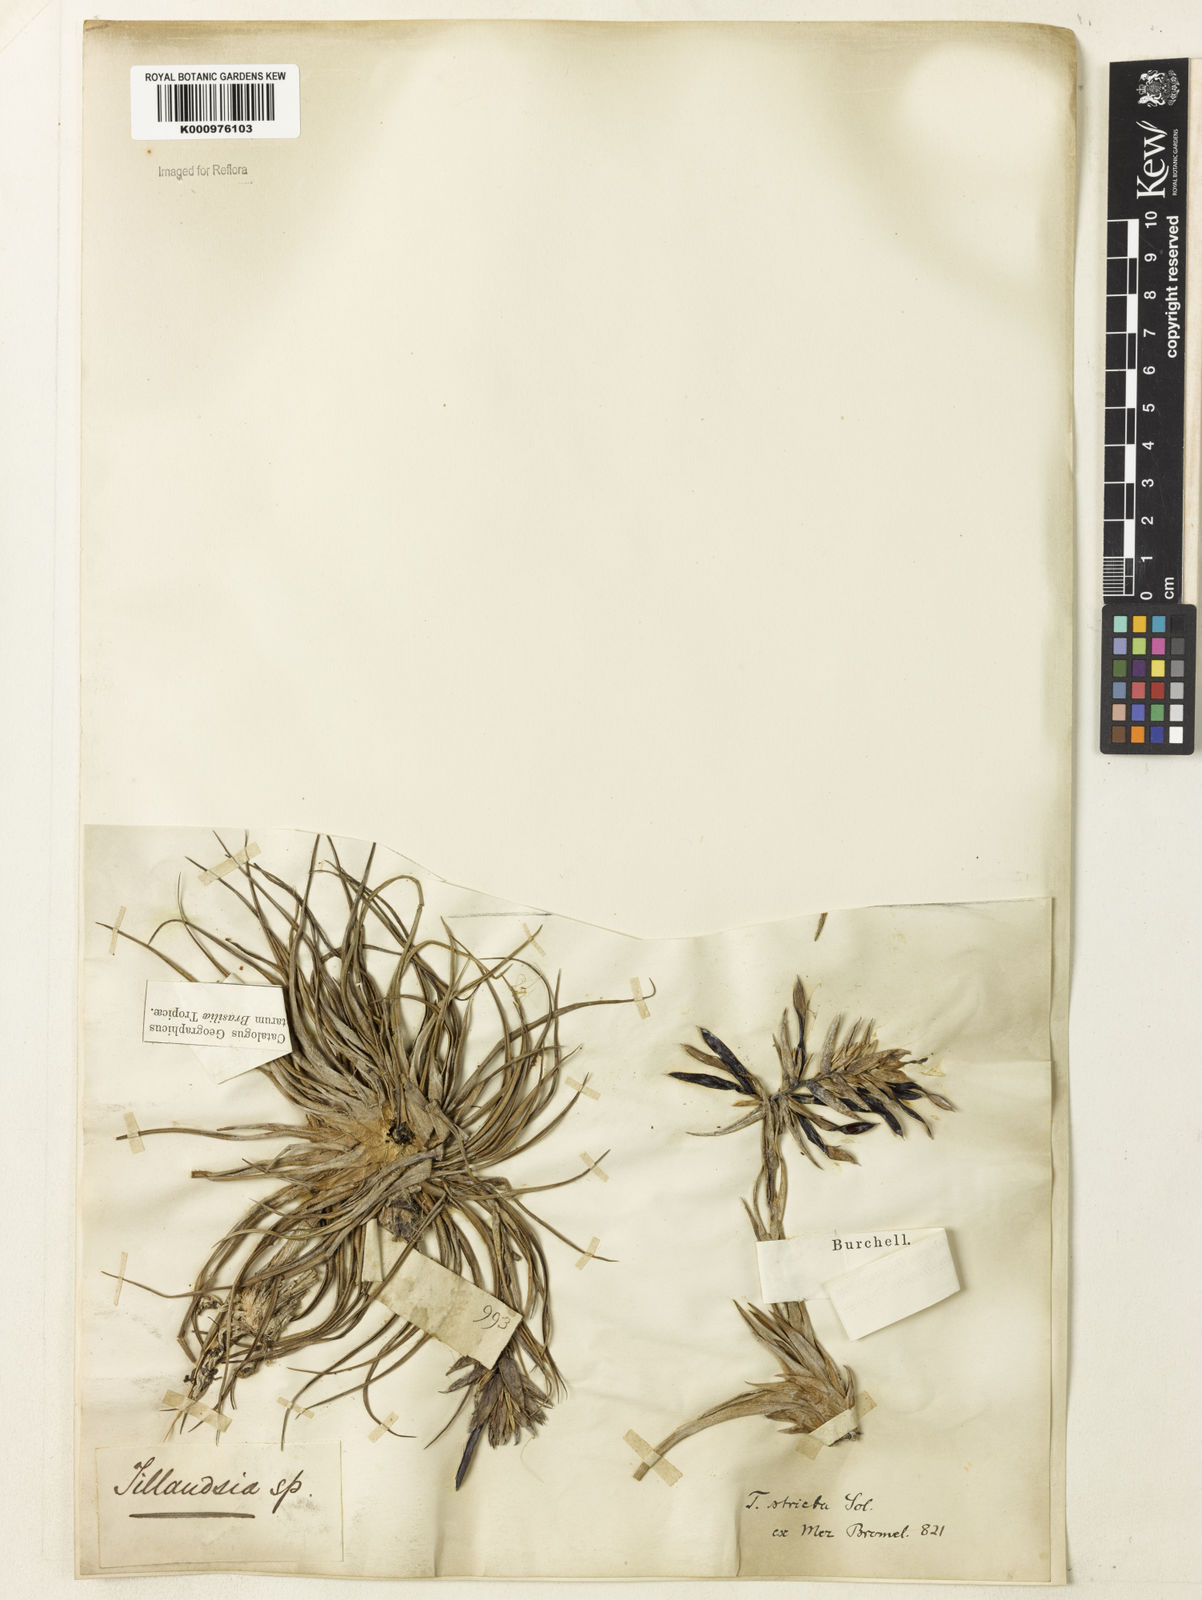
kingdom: Plantae
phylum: Tracheophyta
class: Liliopsida
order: Poales
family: Bromeliaceae
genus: Tillandsia
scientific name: Tillandsia
